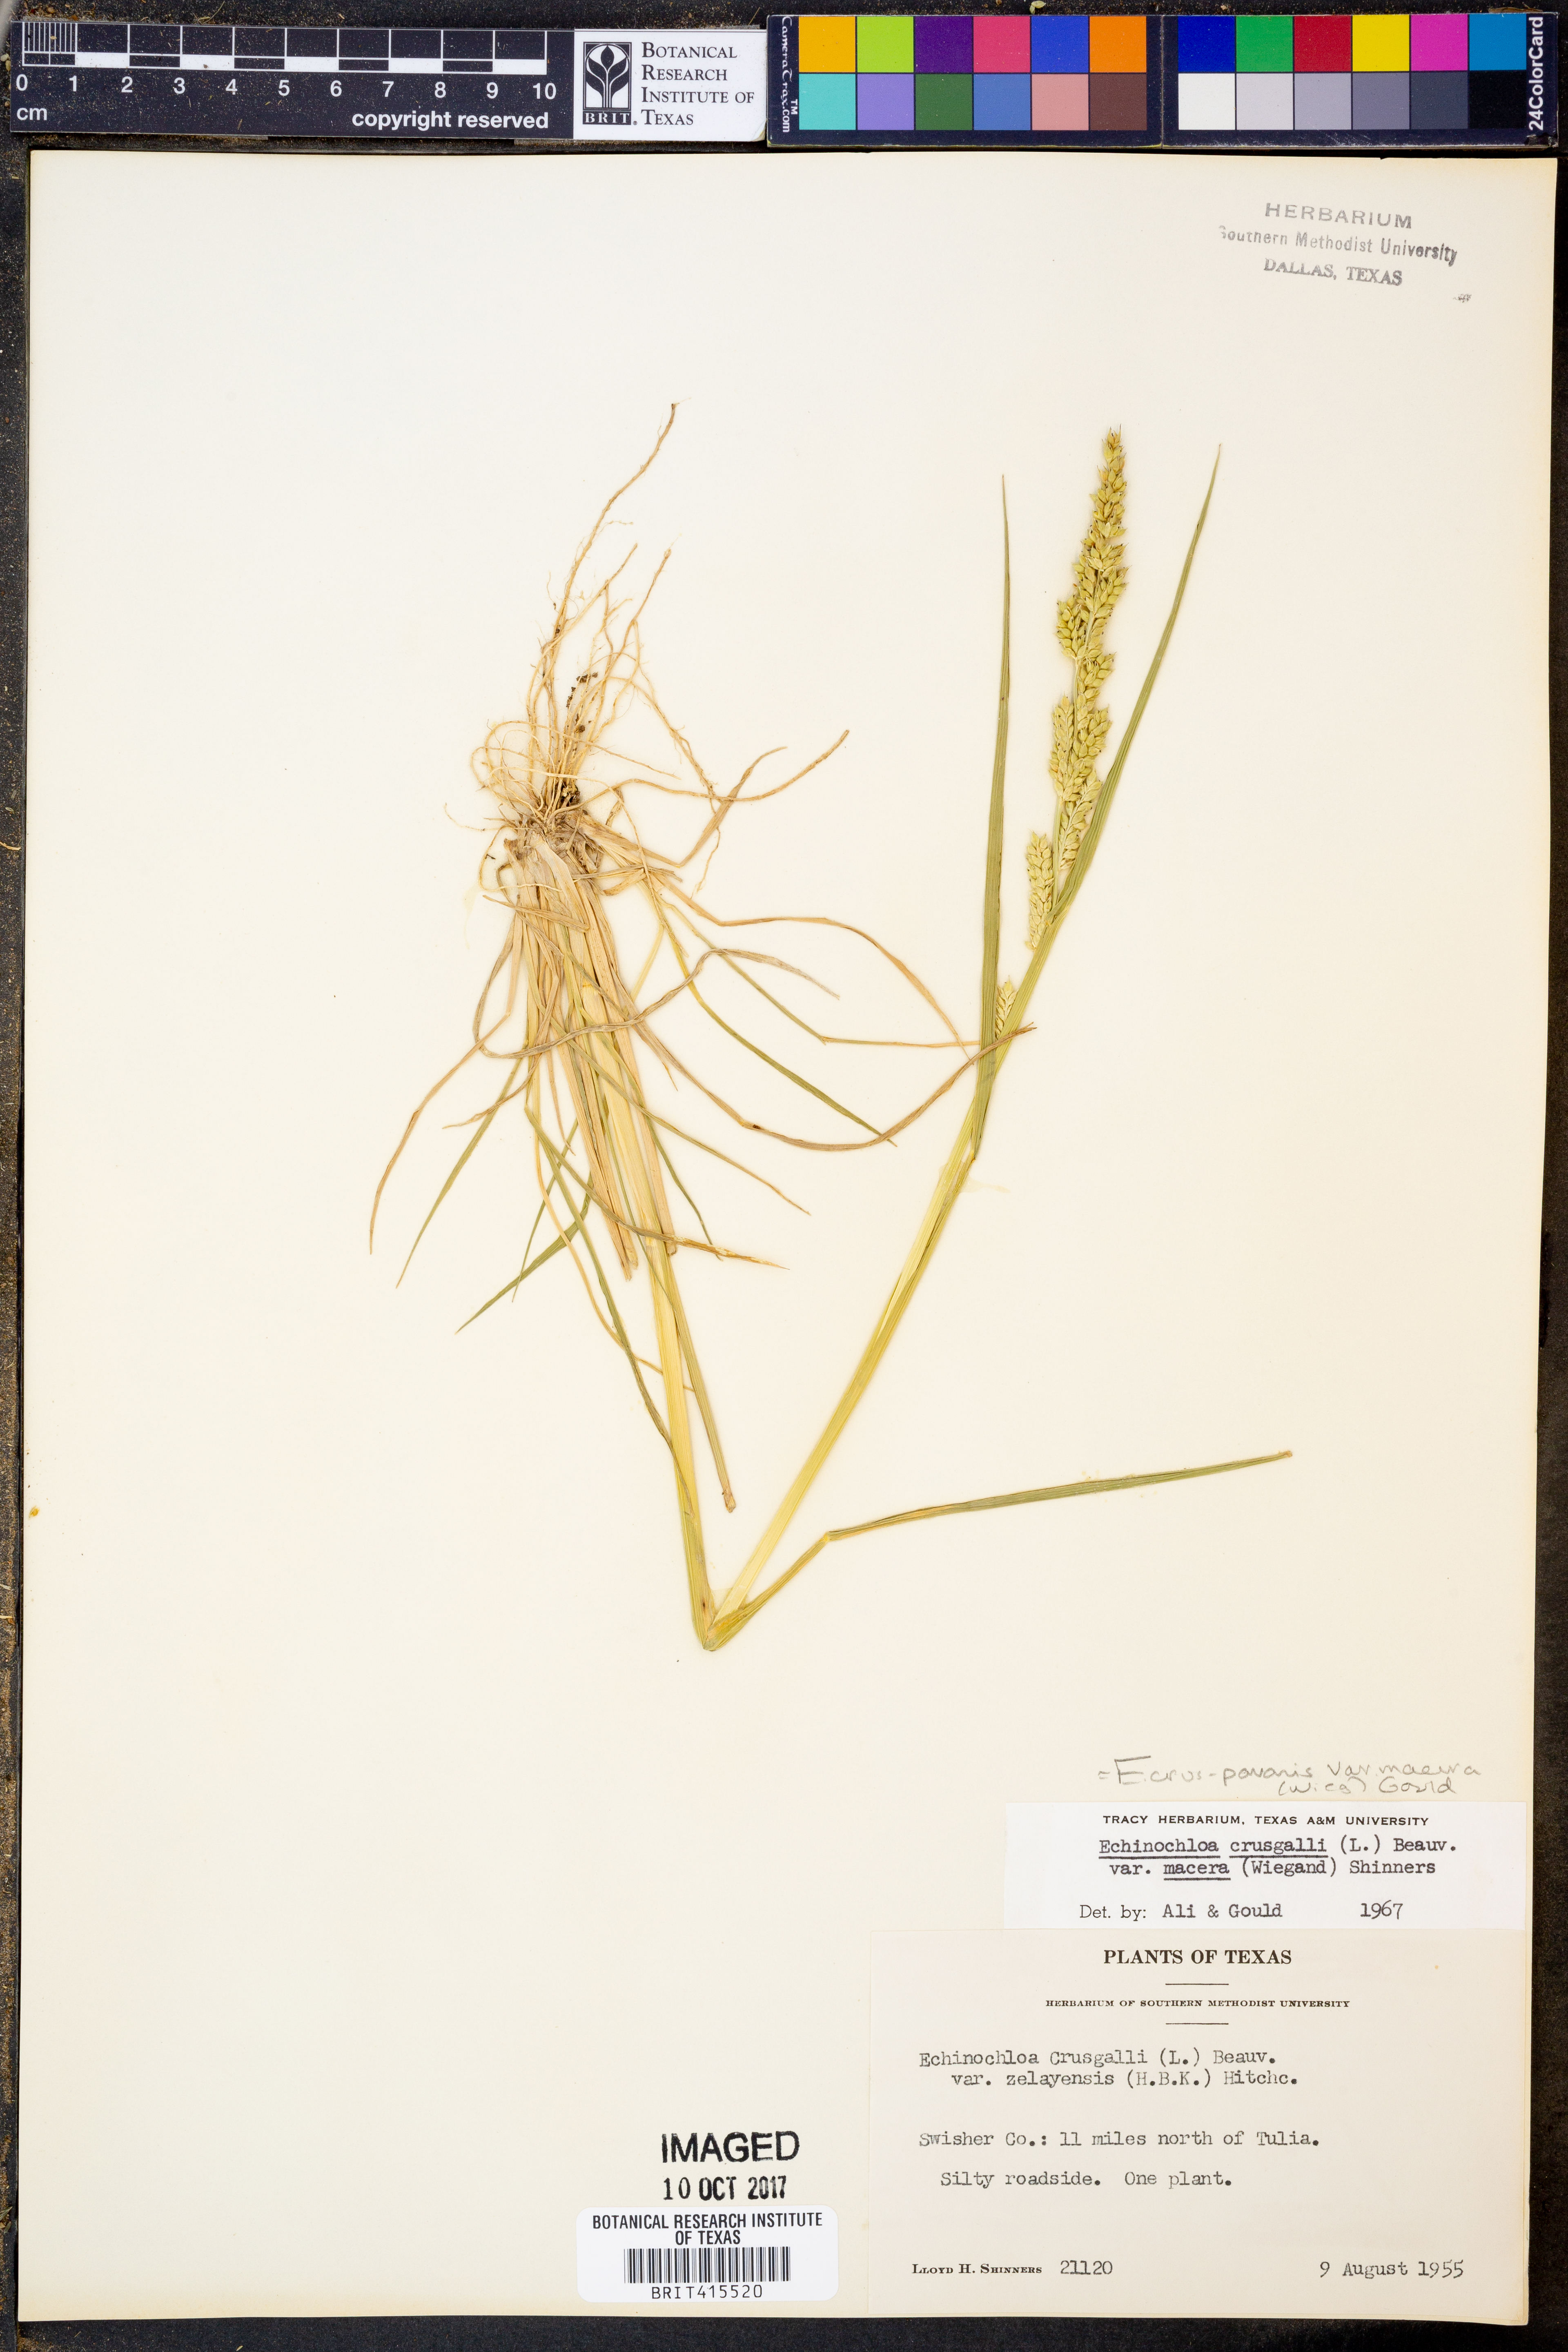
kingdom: Plantae
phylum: Tracheophyta
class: Liliopsida
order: Poales
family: Poaceae
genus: Echinochloa
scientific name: Echinochloa crus-pavonis
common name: Gulf cockspur grass
